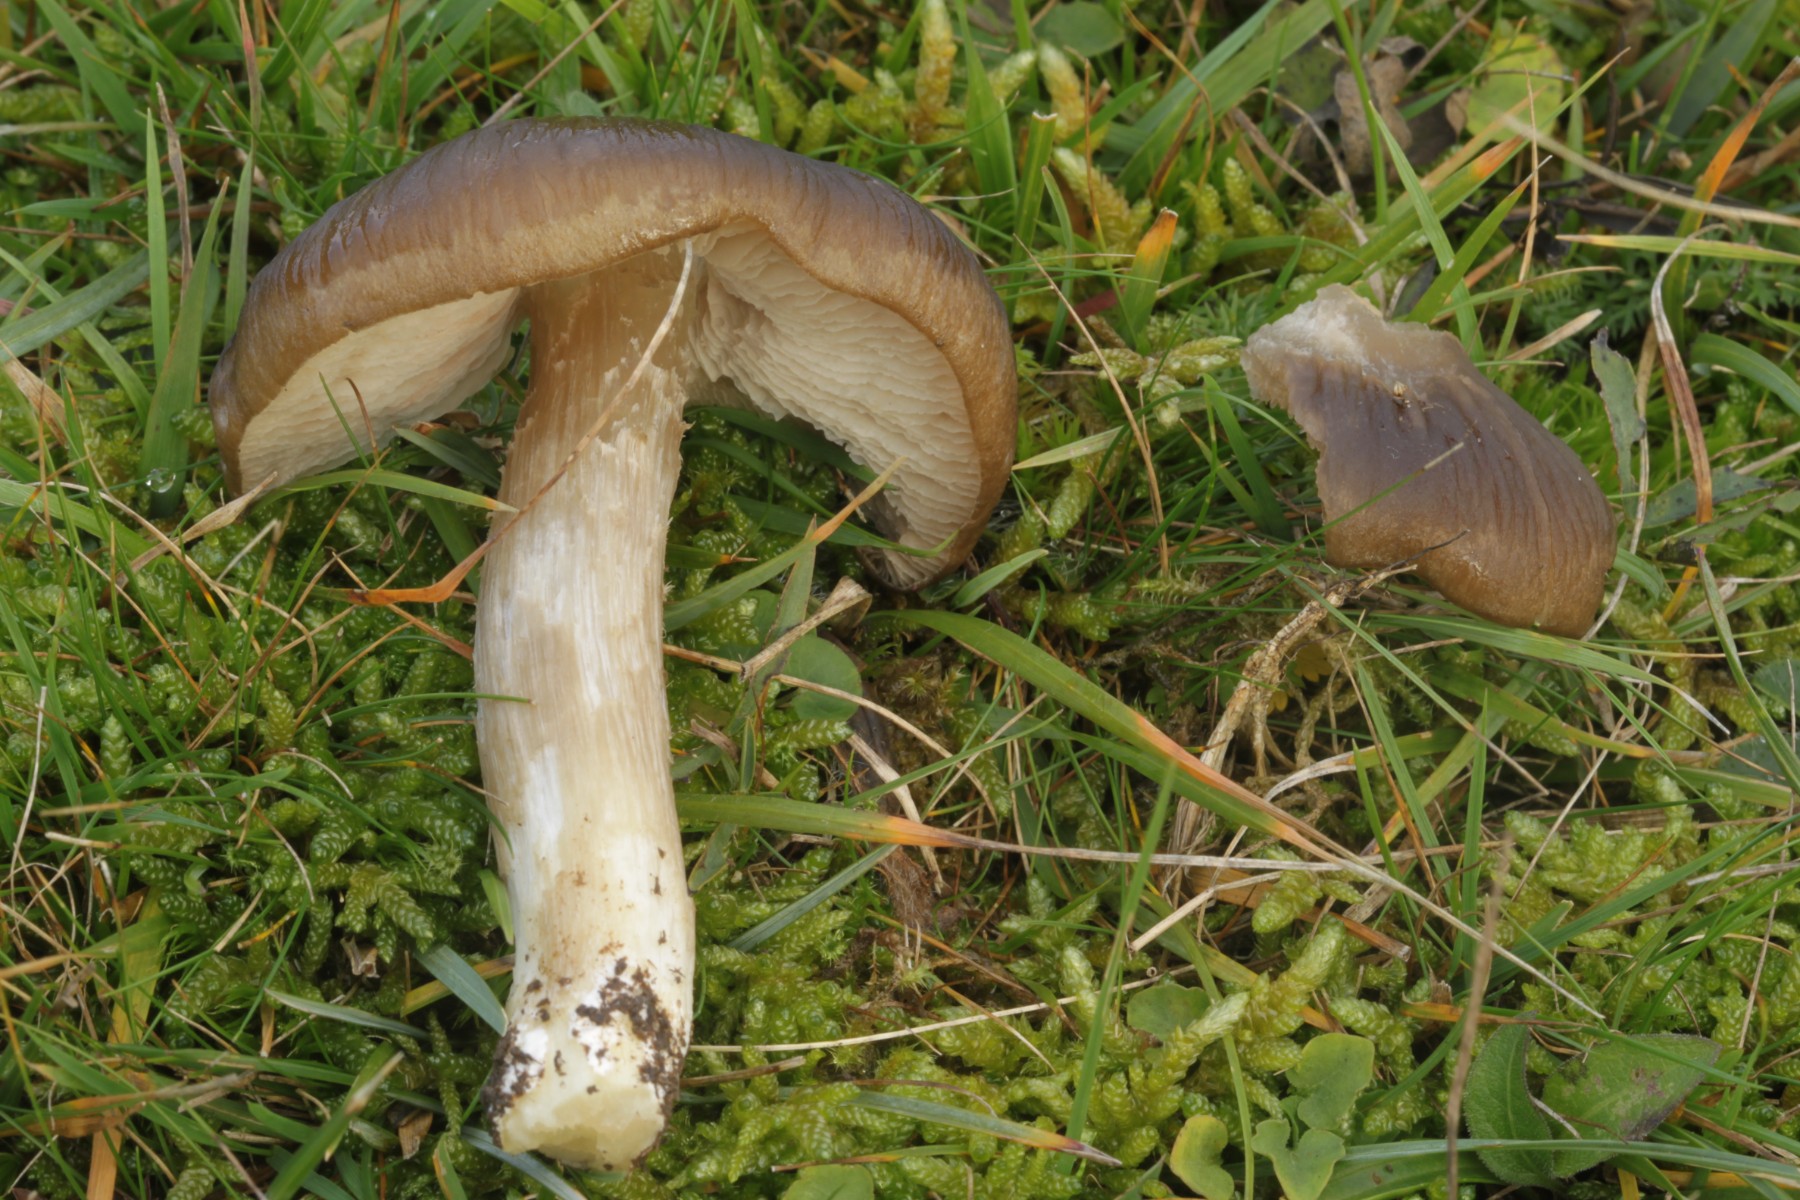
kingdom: Fungi
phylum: Basidiomycota
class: Agaricomycetes
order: Agaricales
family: Entolomataceae
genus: Entoloma
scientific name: Entoloma
